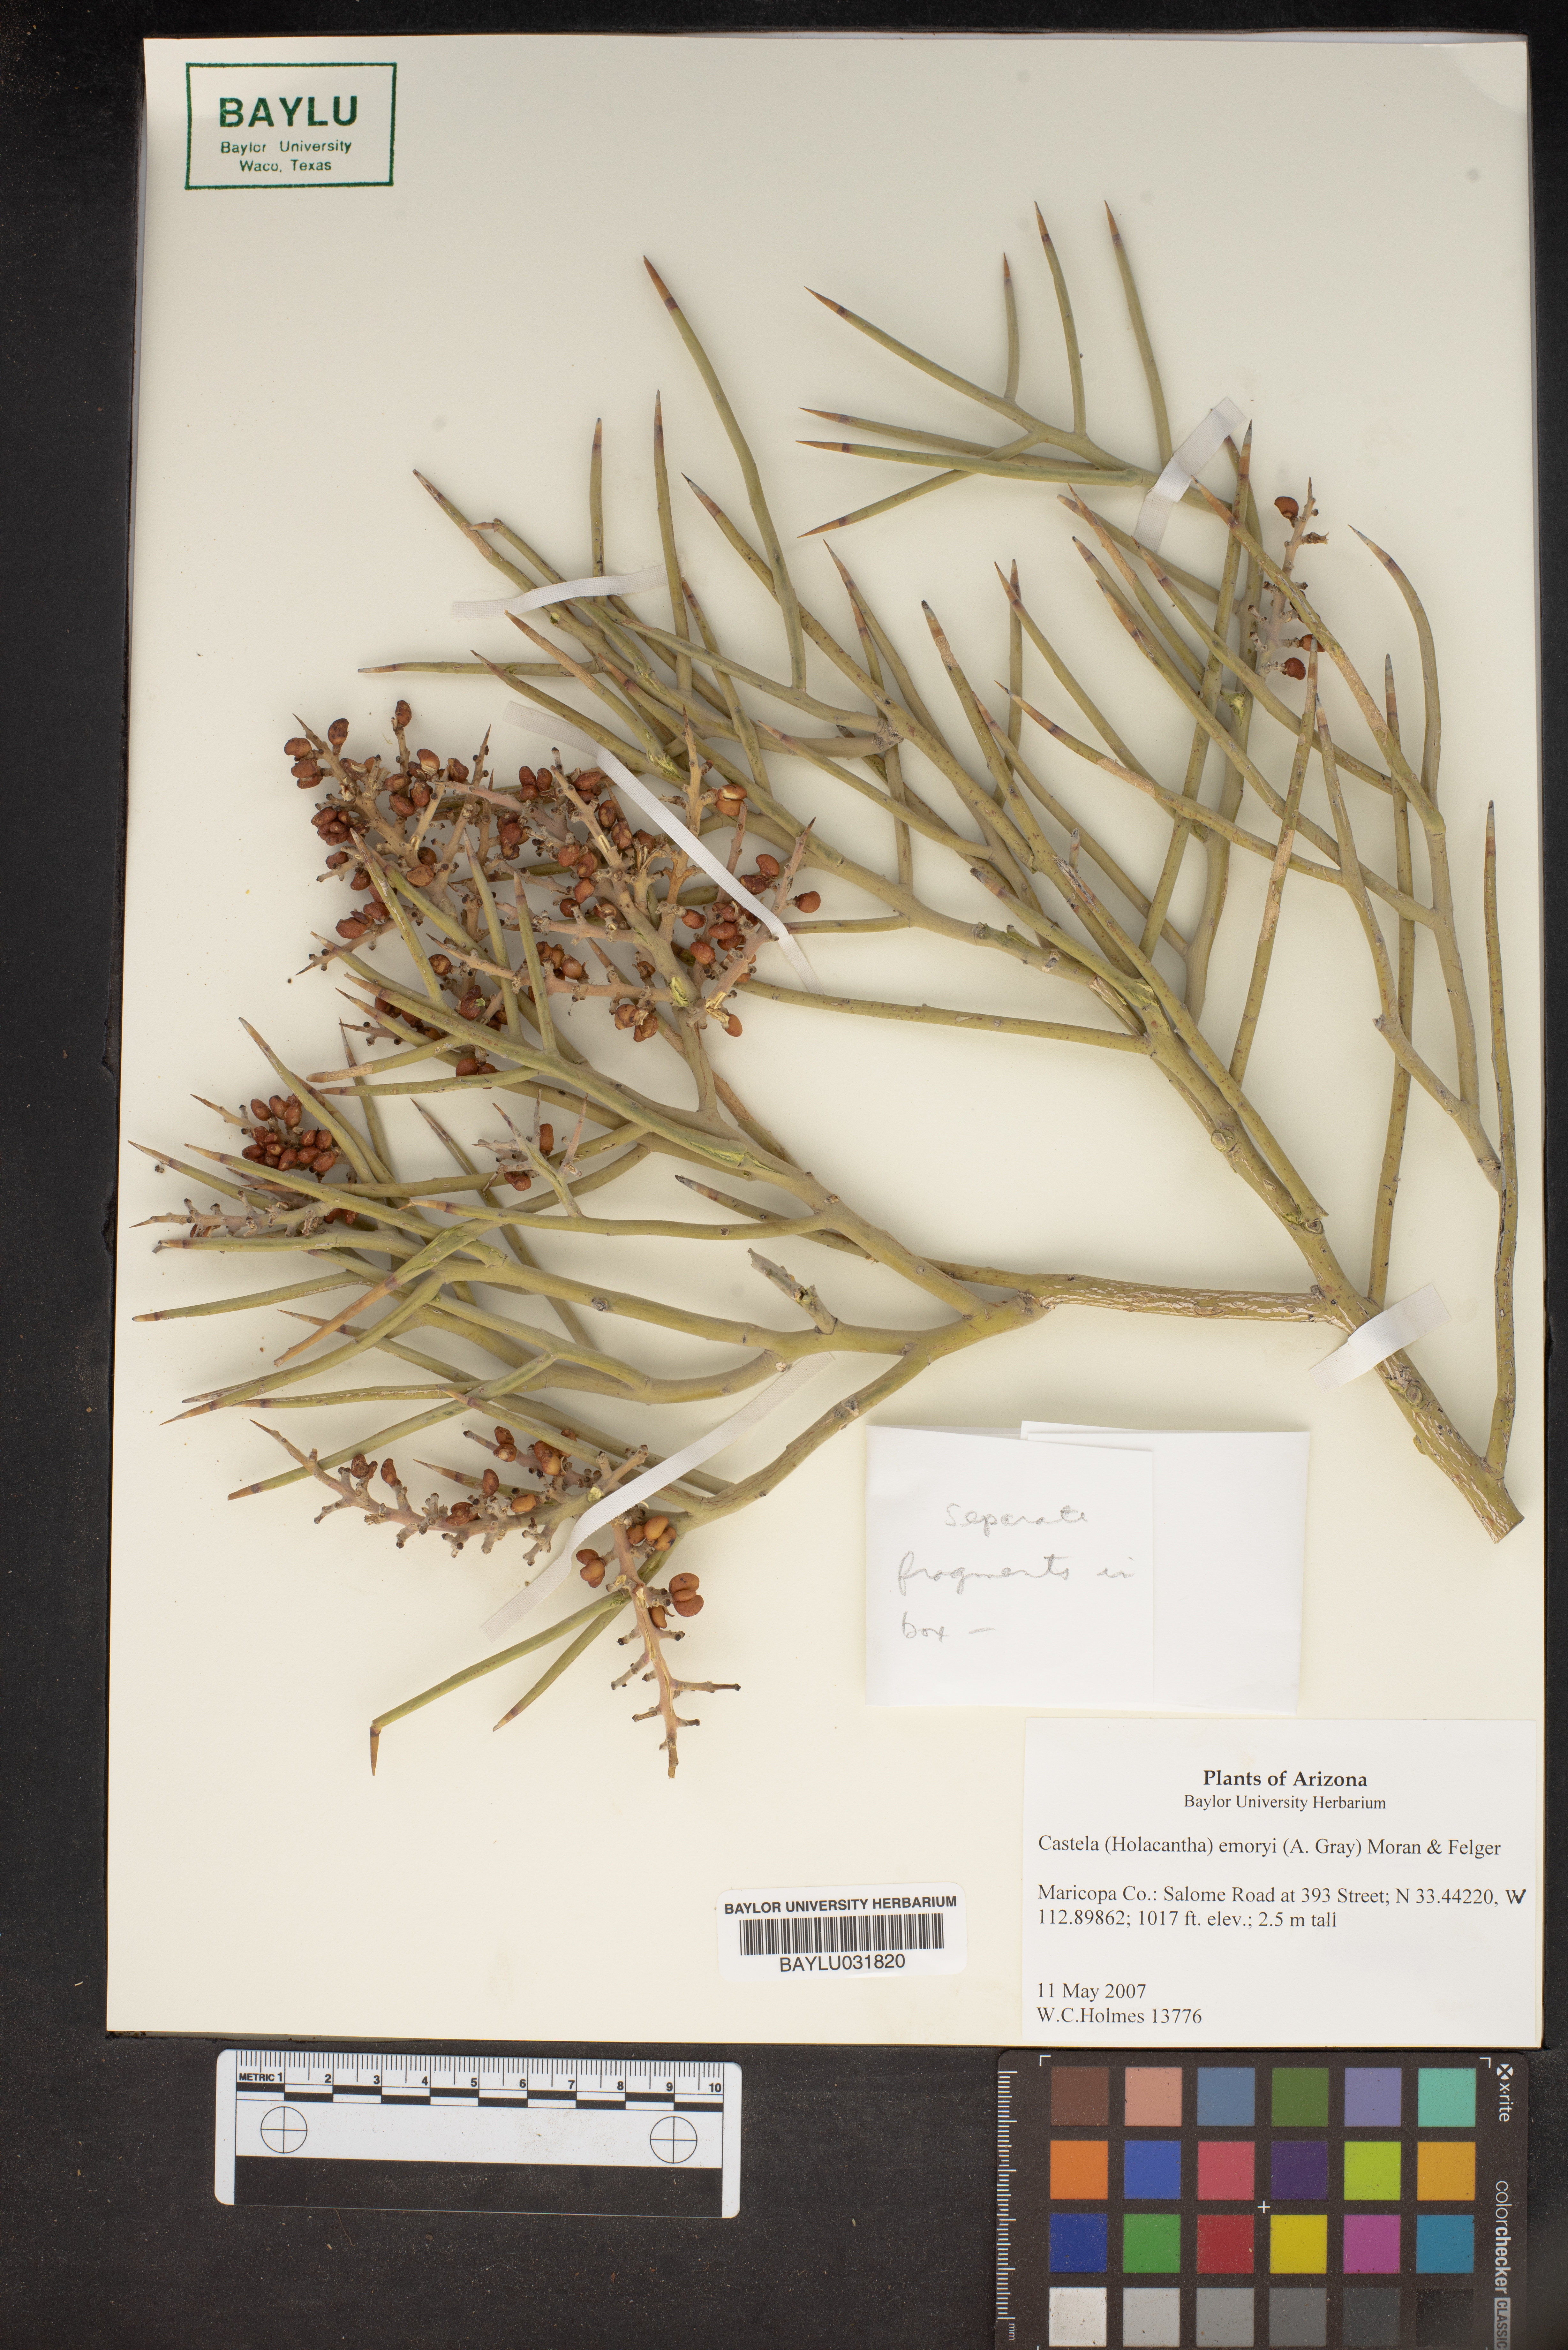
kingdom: Plantae
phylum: Tracheophyta
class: Magnoliopsida
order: Sapindales
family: Simaroubaceae
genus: Holacantha
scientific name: Holacantha emoryi
